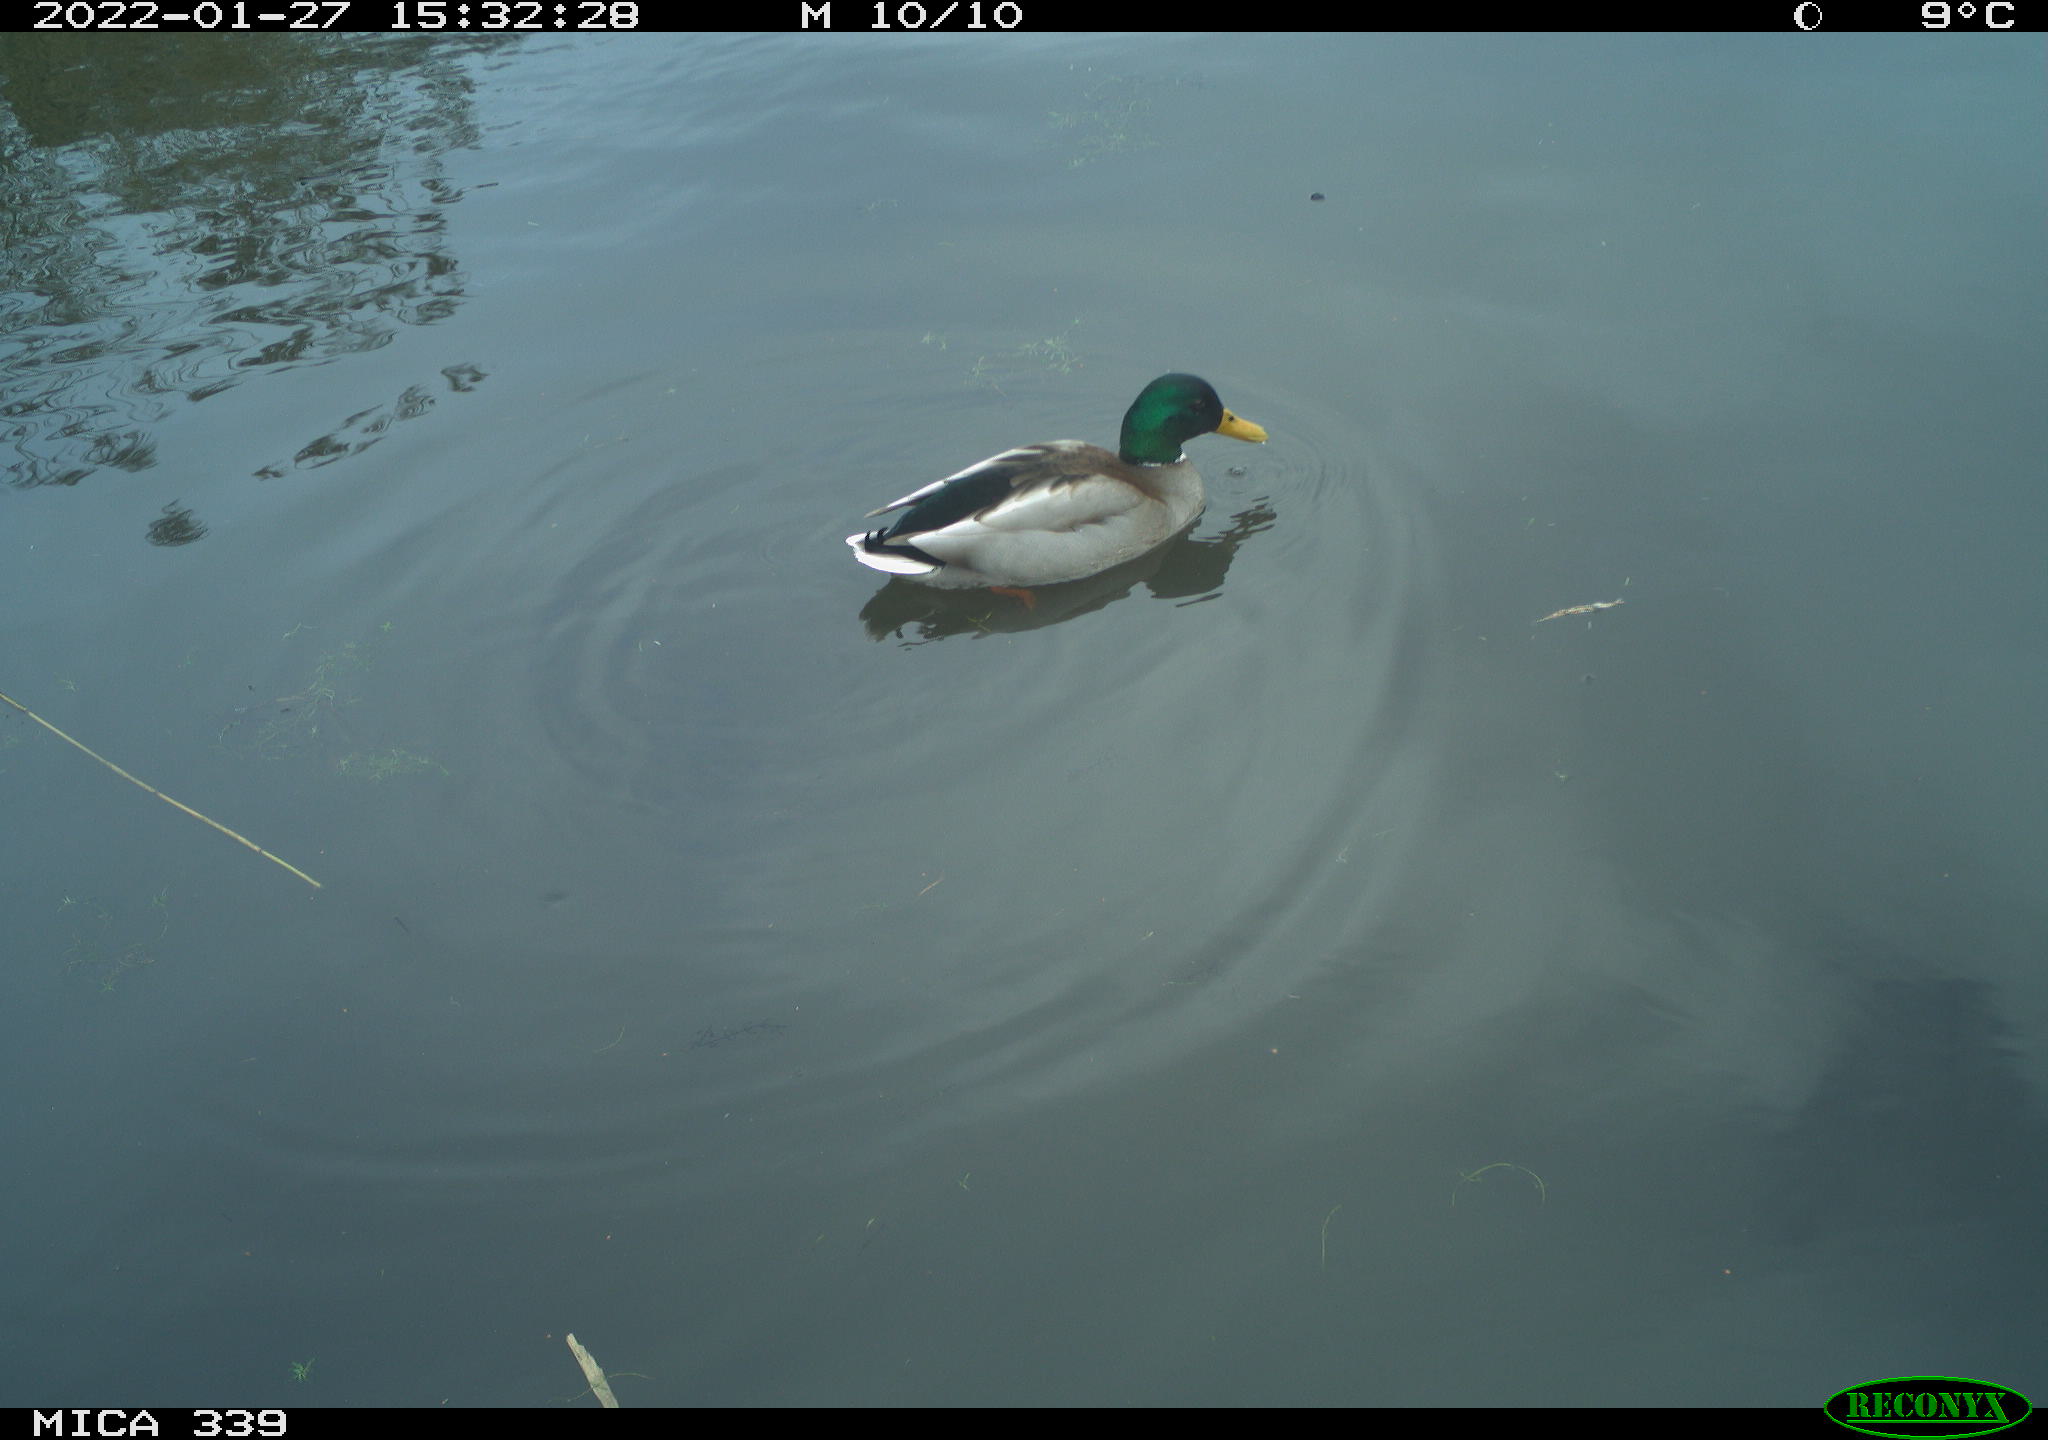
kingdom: Animalia
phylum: Chordata
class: Aves
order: Anseriformes
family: Anatidae
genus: Anas
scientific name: Anas platyrhynchos
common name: Mallard
